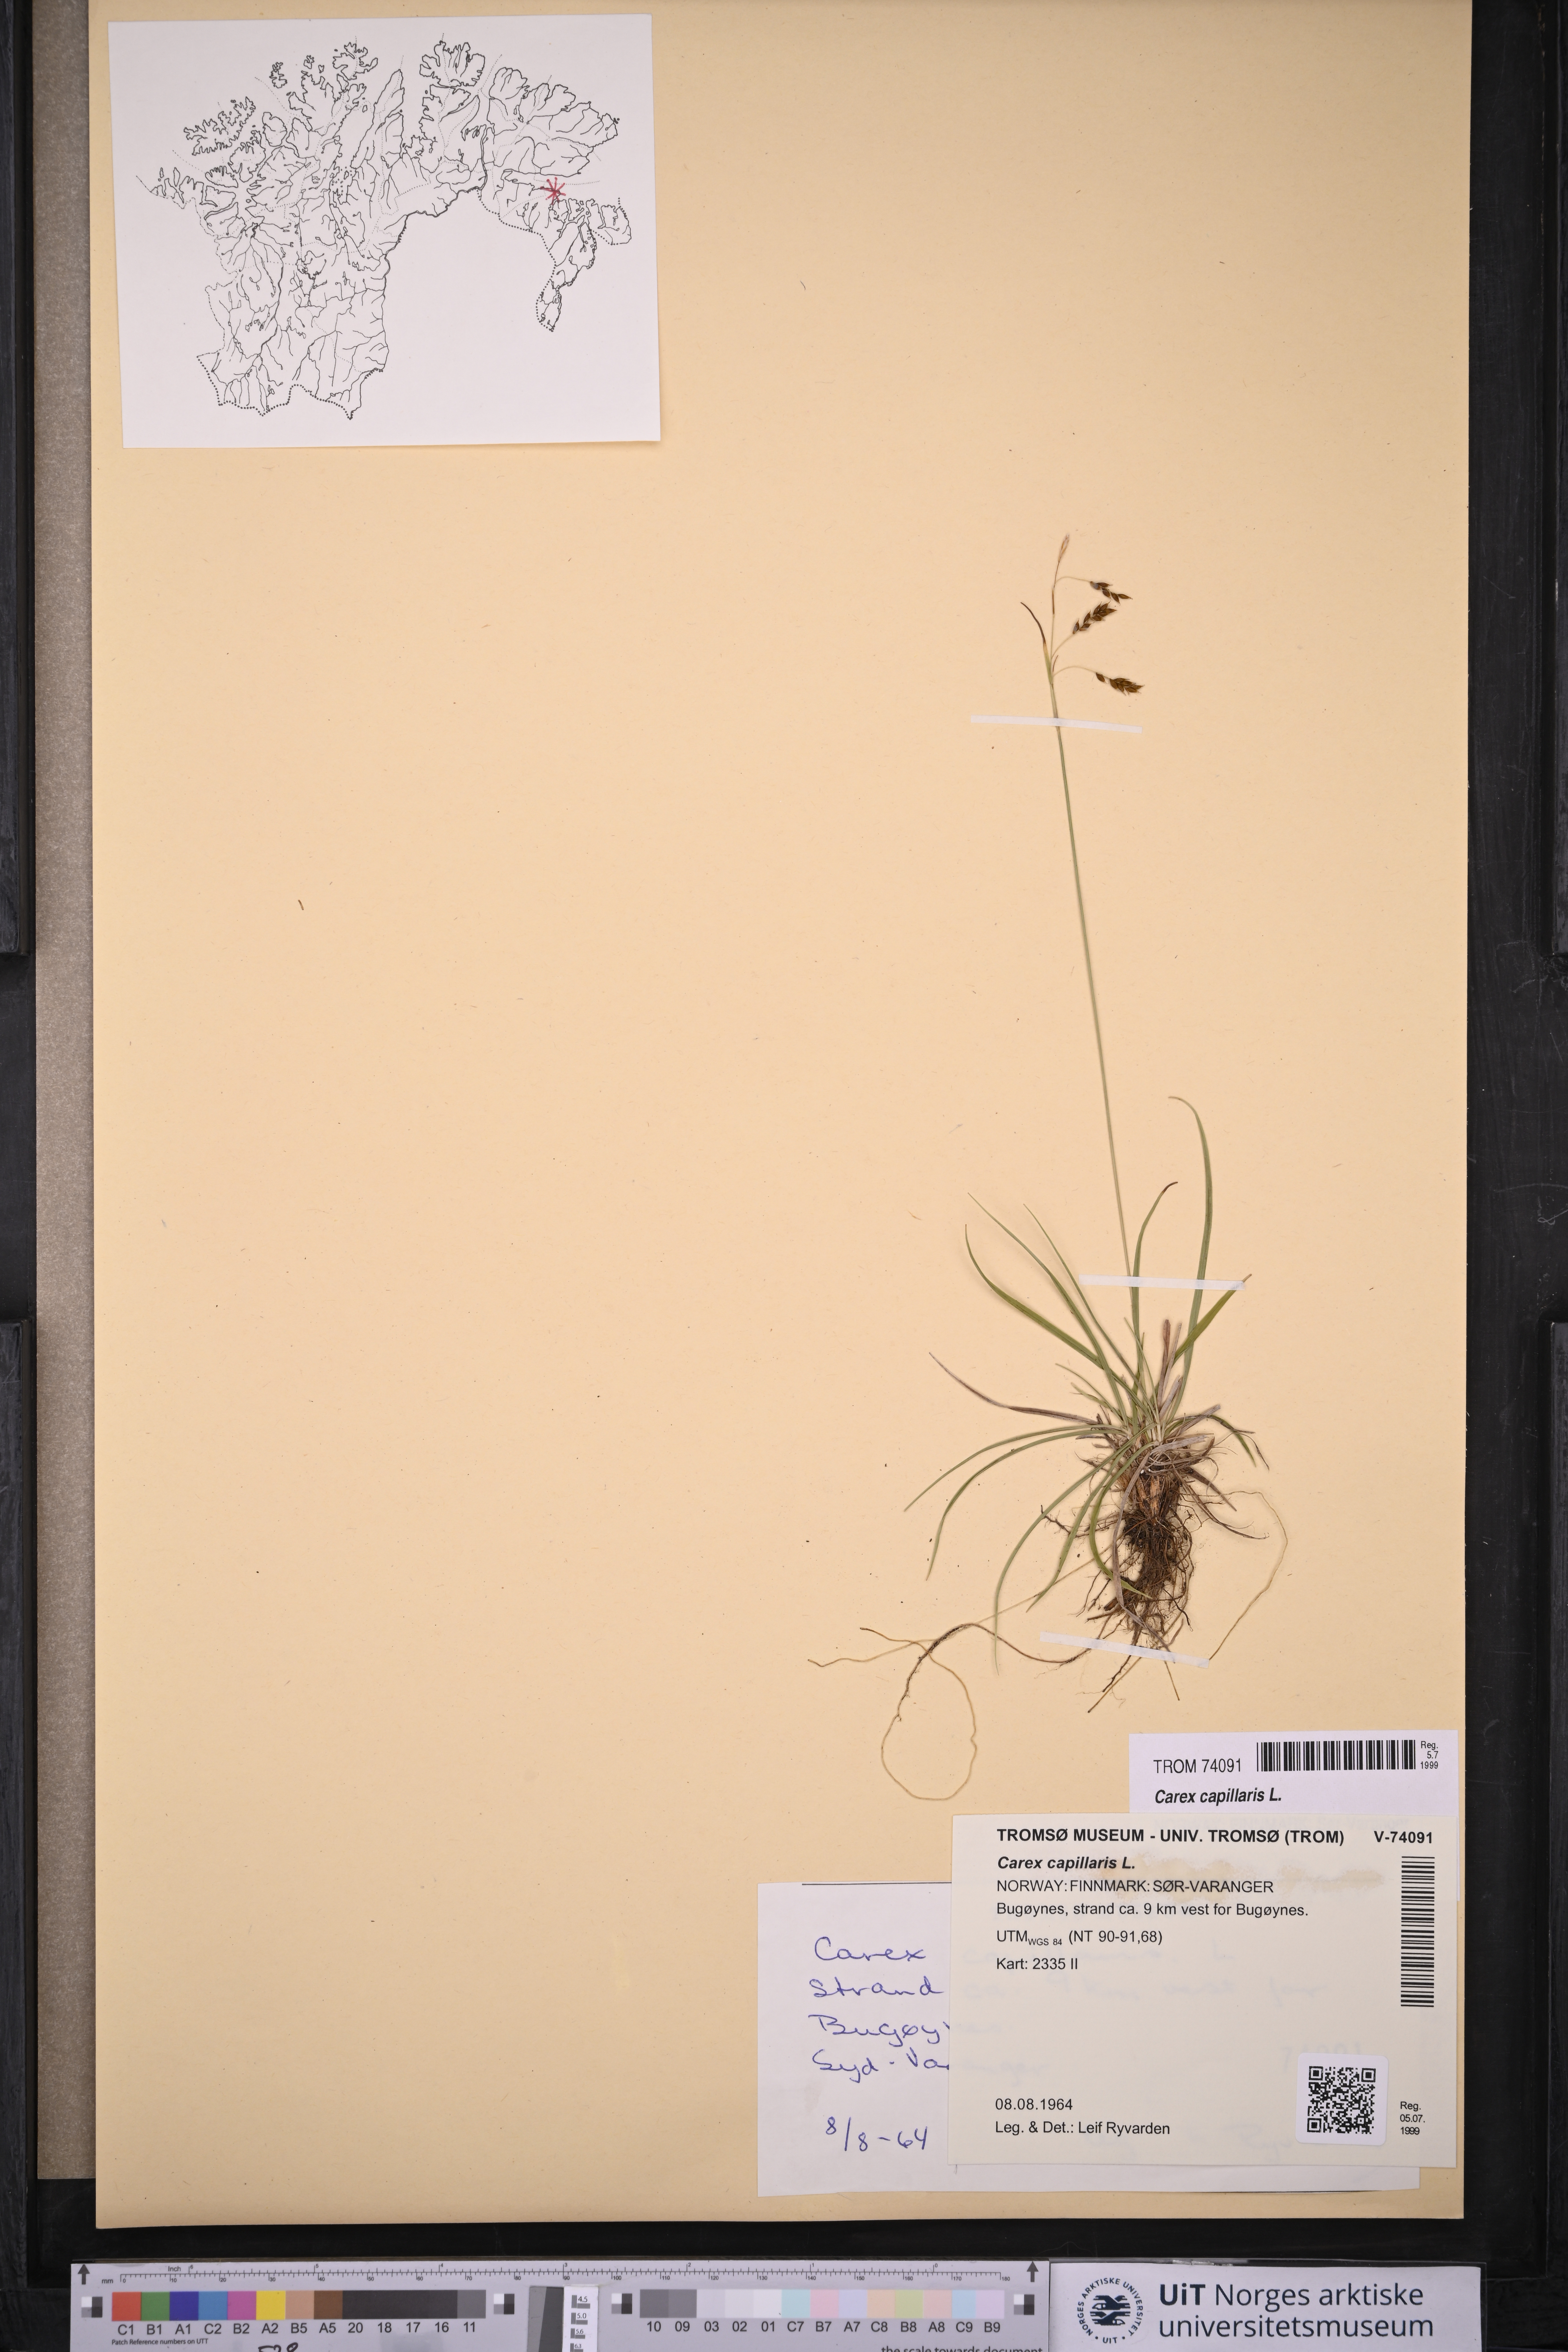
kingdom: Plantae
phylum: Tracheophyta
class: Liliopsida
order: Poales
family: Cyperaceae
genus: Carex
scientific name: Carex capillaris
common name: Hair sedge
